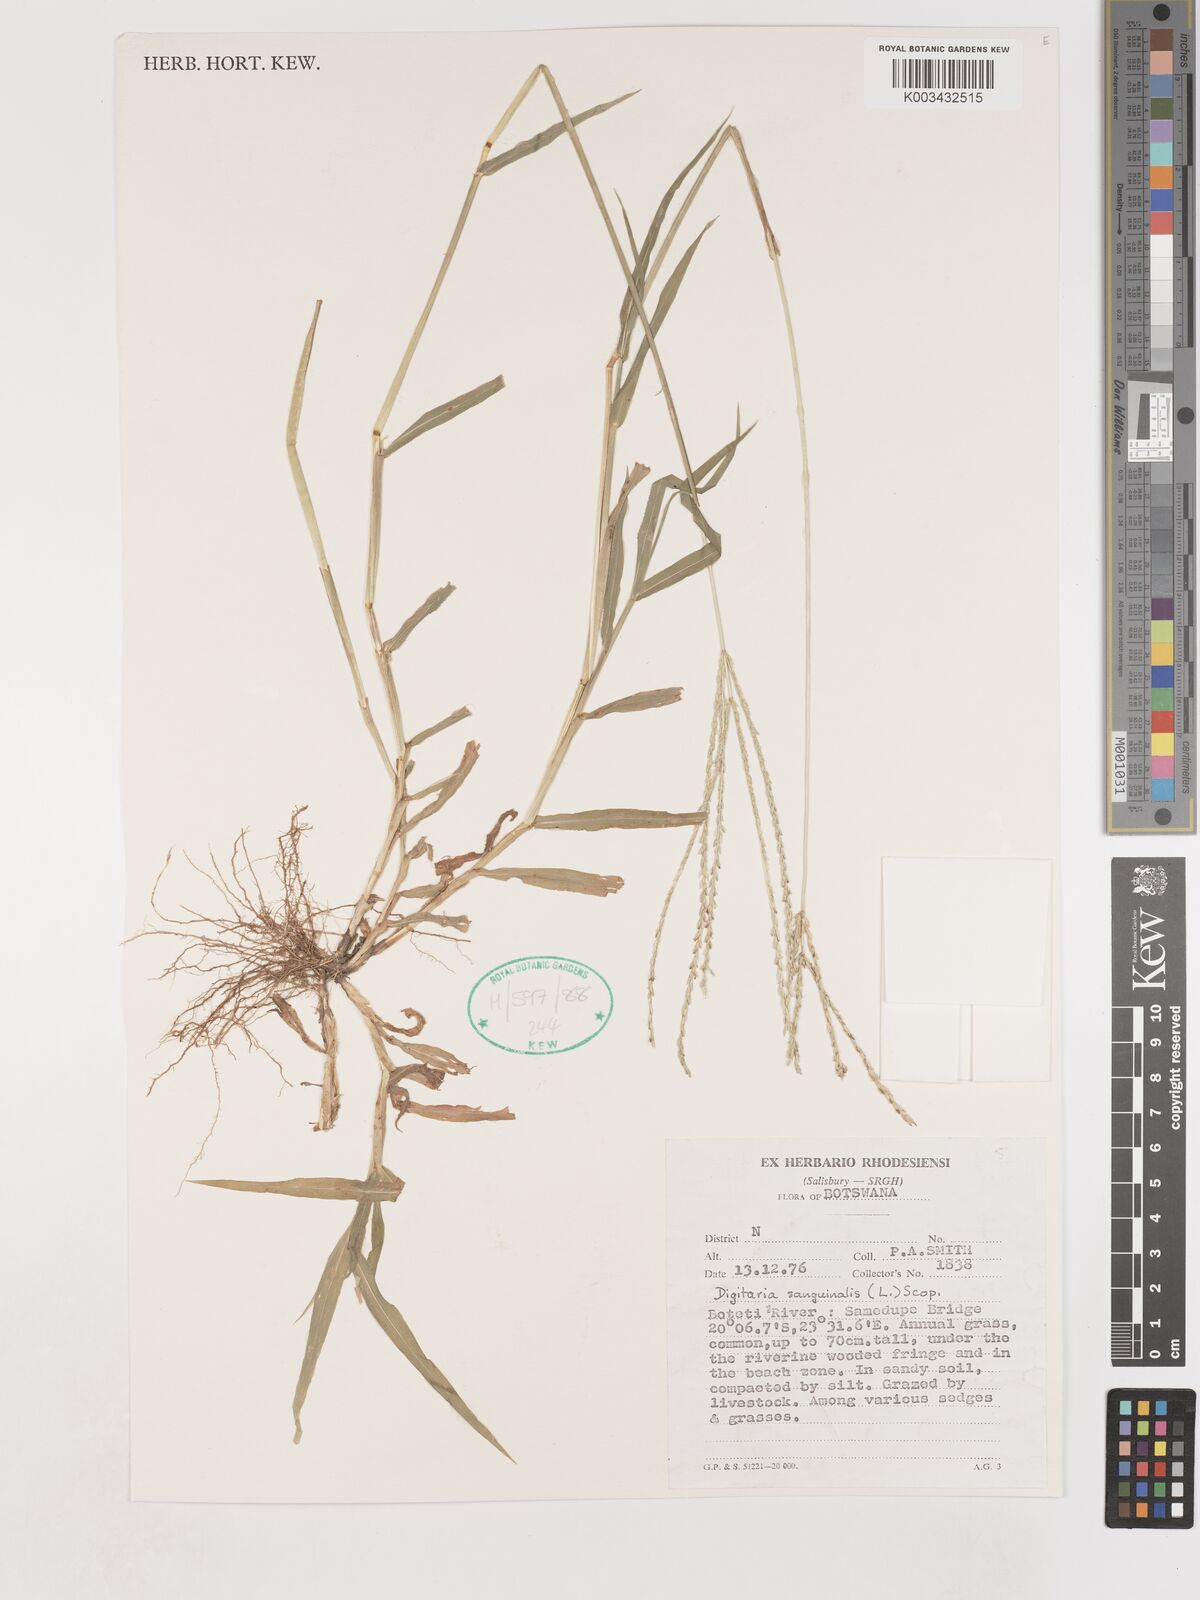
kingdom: Plantae
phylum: Tracheophyta
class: Liliopsida
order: Poales
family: Poaceae
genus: Digitaria
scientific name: Digitaria sanguinalis
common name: Hairy crabgrass
